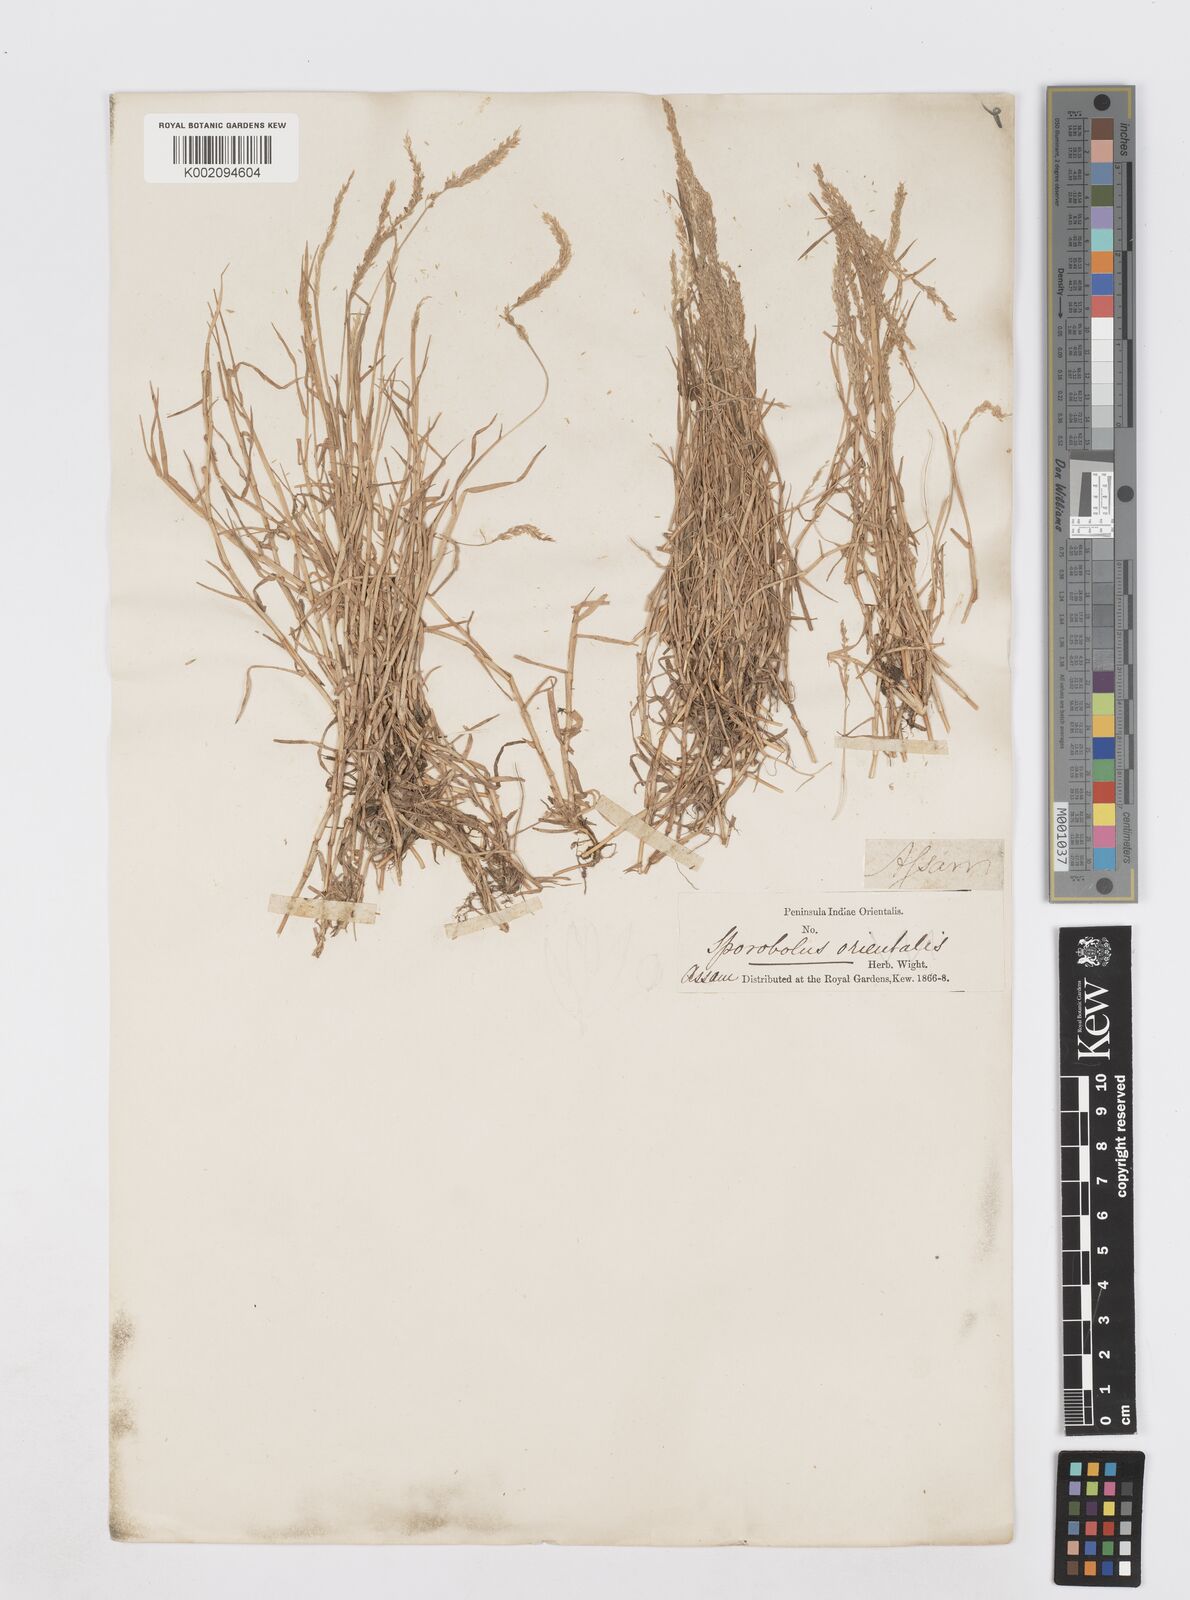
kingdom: Plantae
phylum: Tracheophyta
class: Liliopsida
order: Poales
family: Poaceae
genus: Sporobolus
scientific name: Sporobolus virginicus
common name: Beach dropseed
